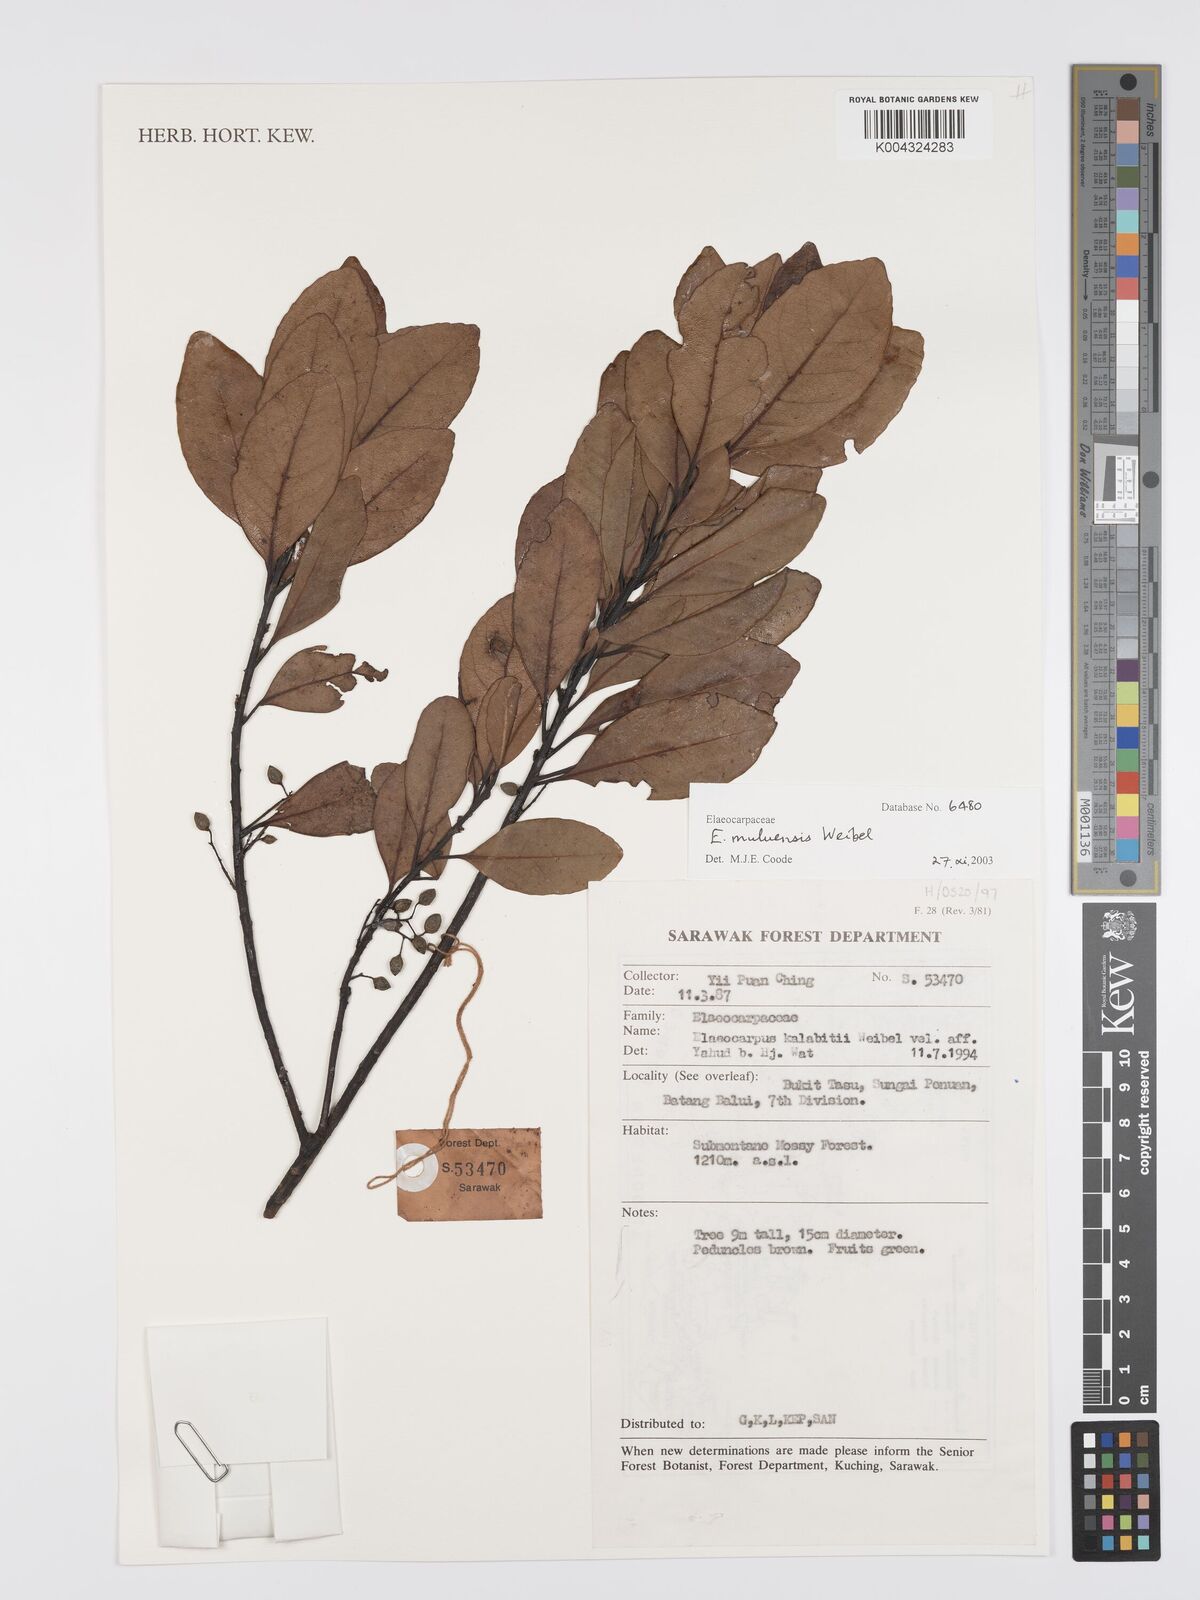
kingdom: Plantae
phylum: Tracheophyta
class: Magnoliopsida
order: Oxalidales
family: Elaeocarpaceae
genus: Elaeocarpus
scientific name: Elaeocarpus muluensis
